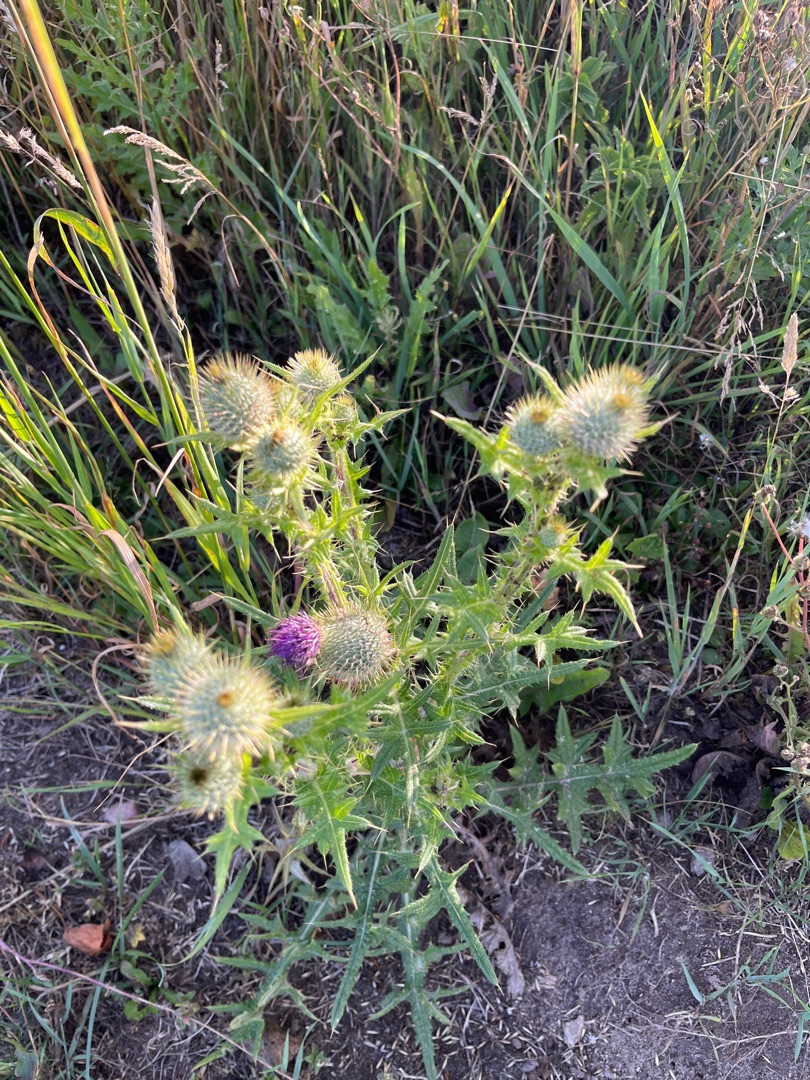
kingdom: Plantae
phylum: Tracheophyta
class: Magnoliopsida
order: Asterales
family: Asteraceae
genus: Cirsium
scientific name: Cirsium vulgare
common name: Horse-tidsel
